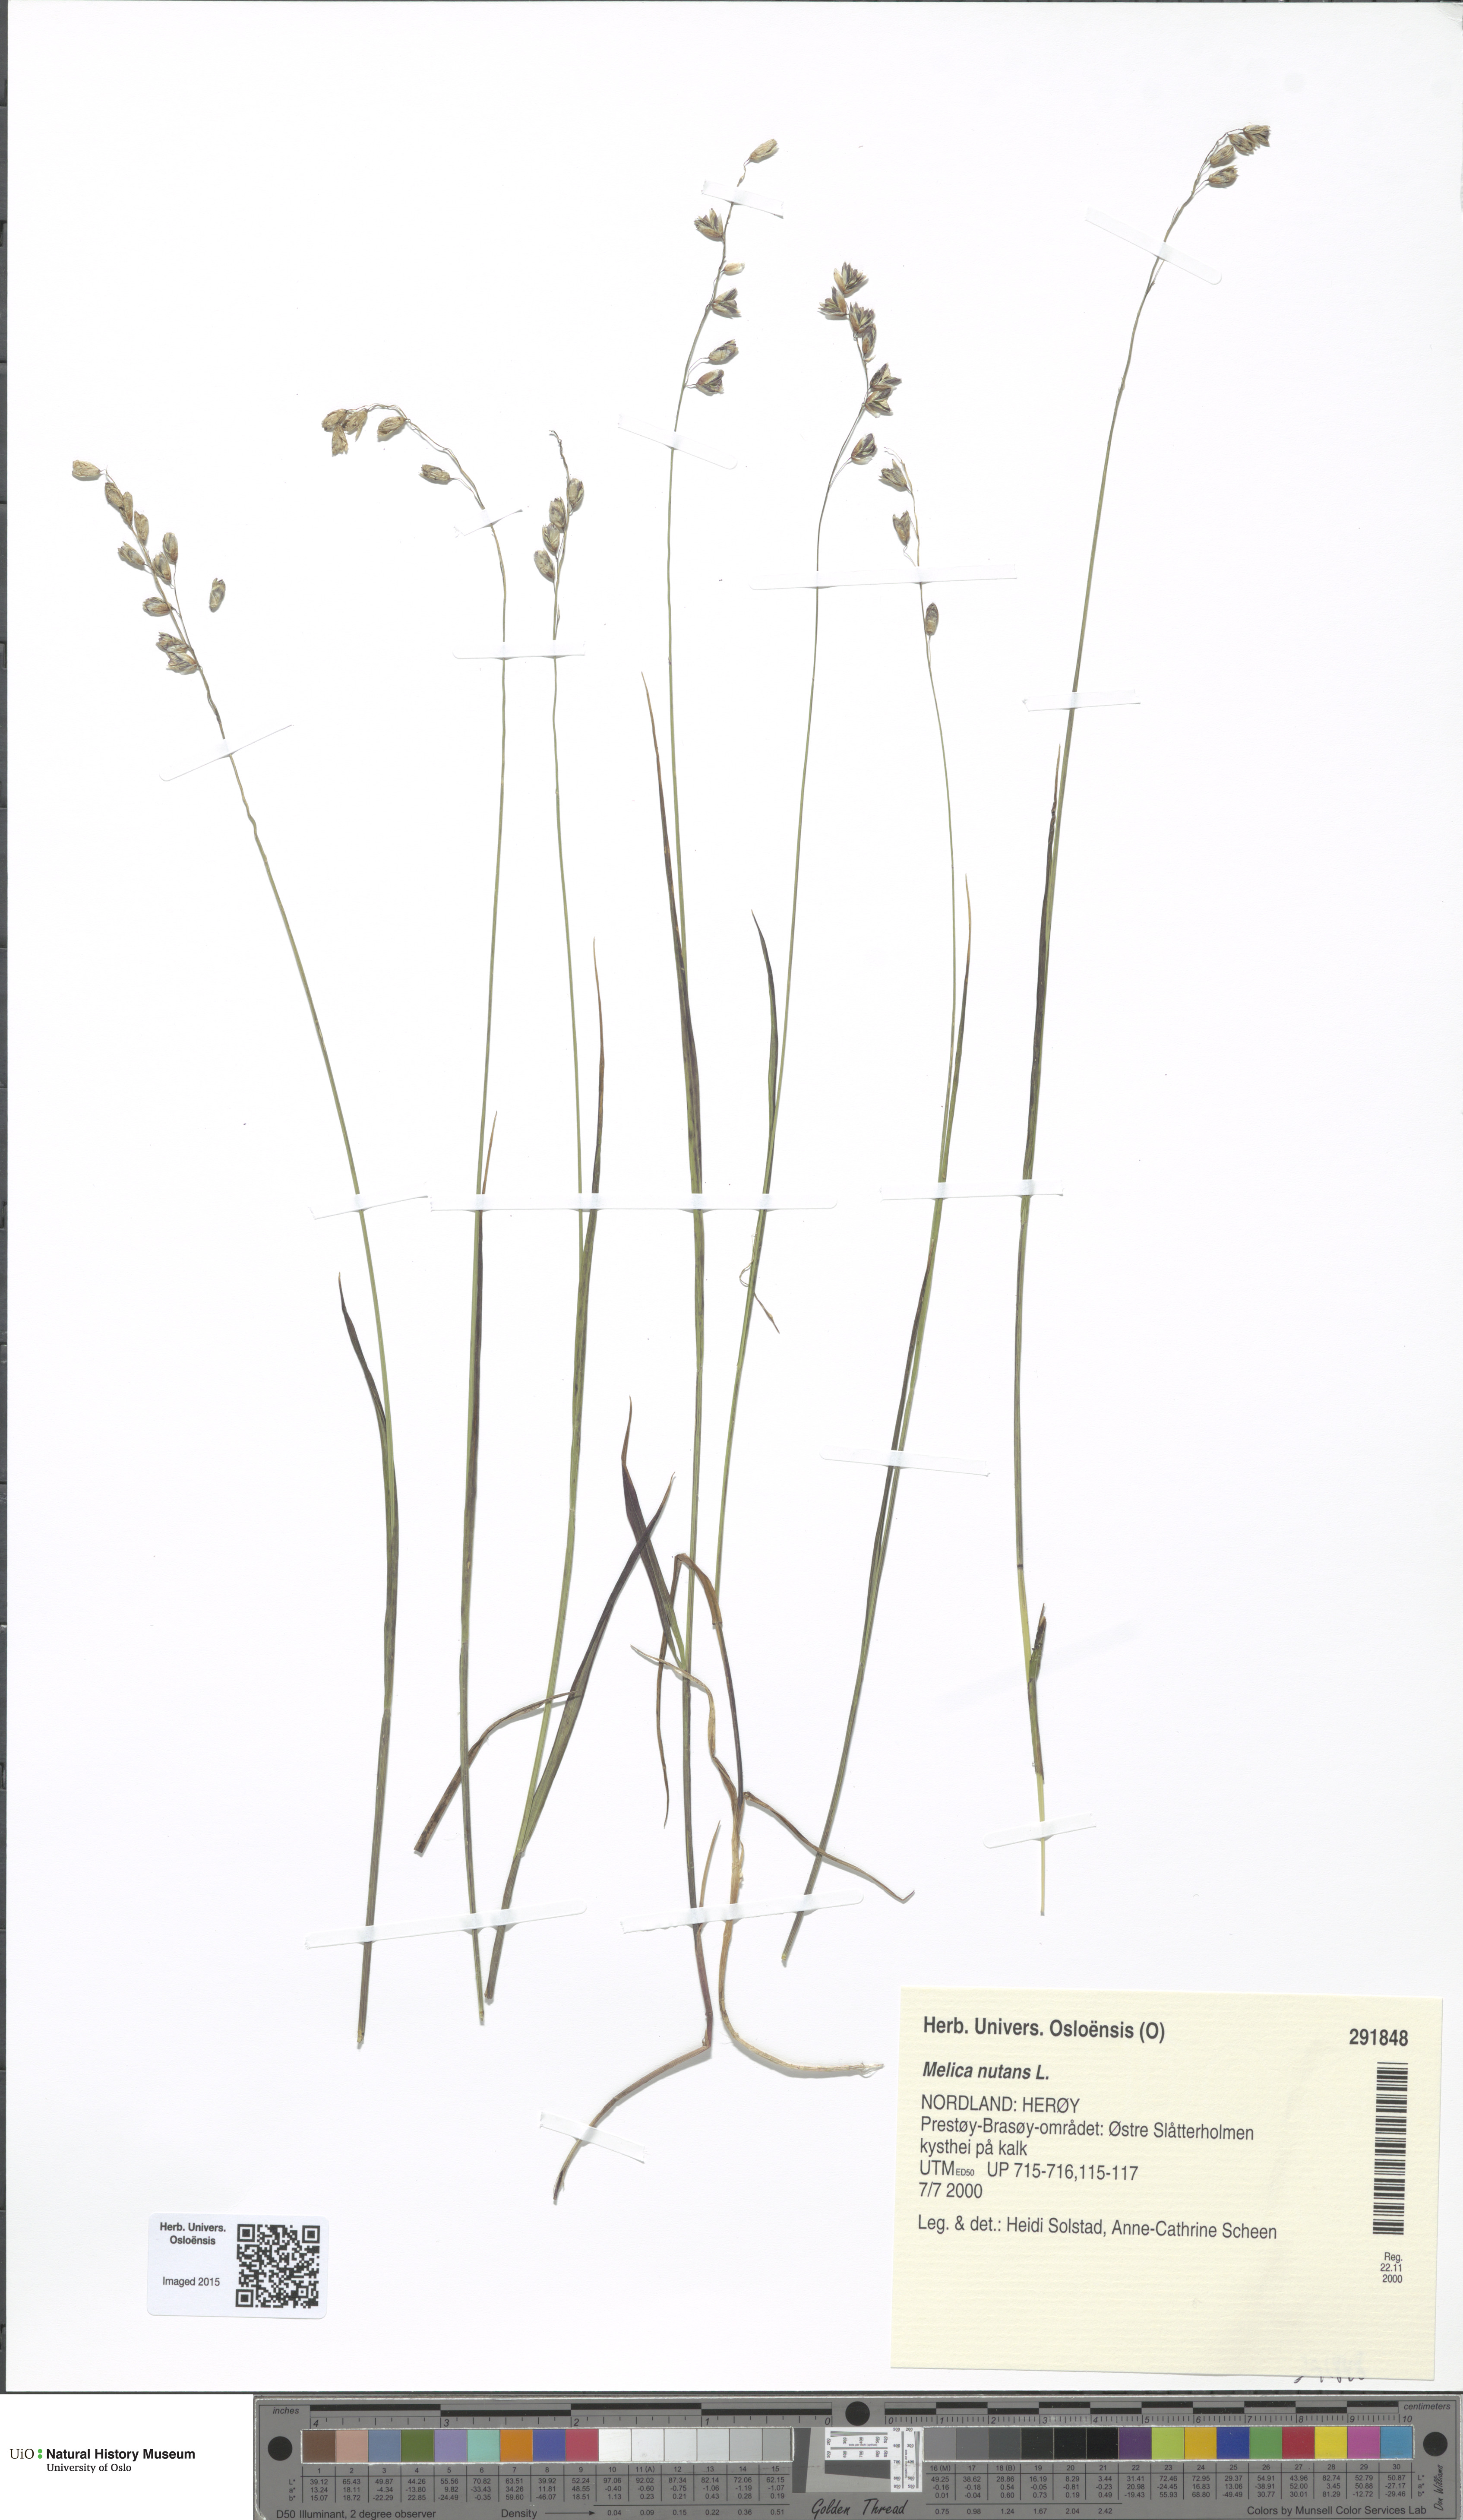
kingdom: Plantae
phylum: Tracheophyta
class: Liliopsida
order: Poales
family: Poaceae
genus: Melica
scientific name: Melica nutans
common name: Mountain melick
